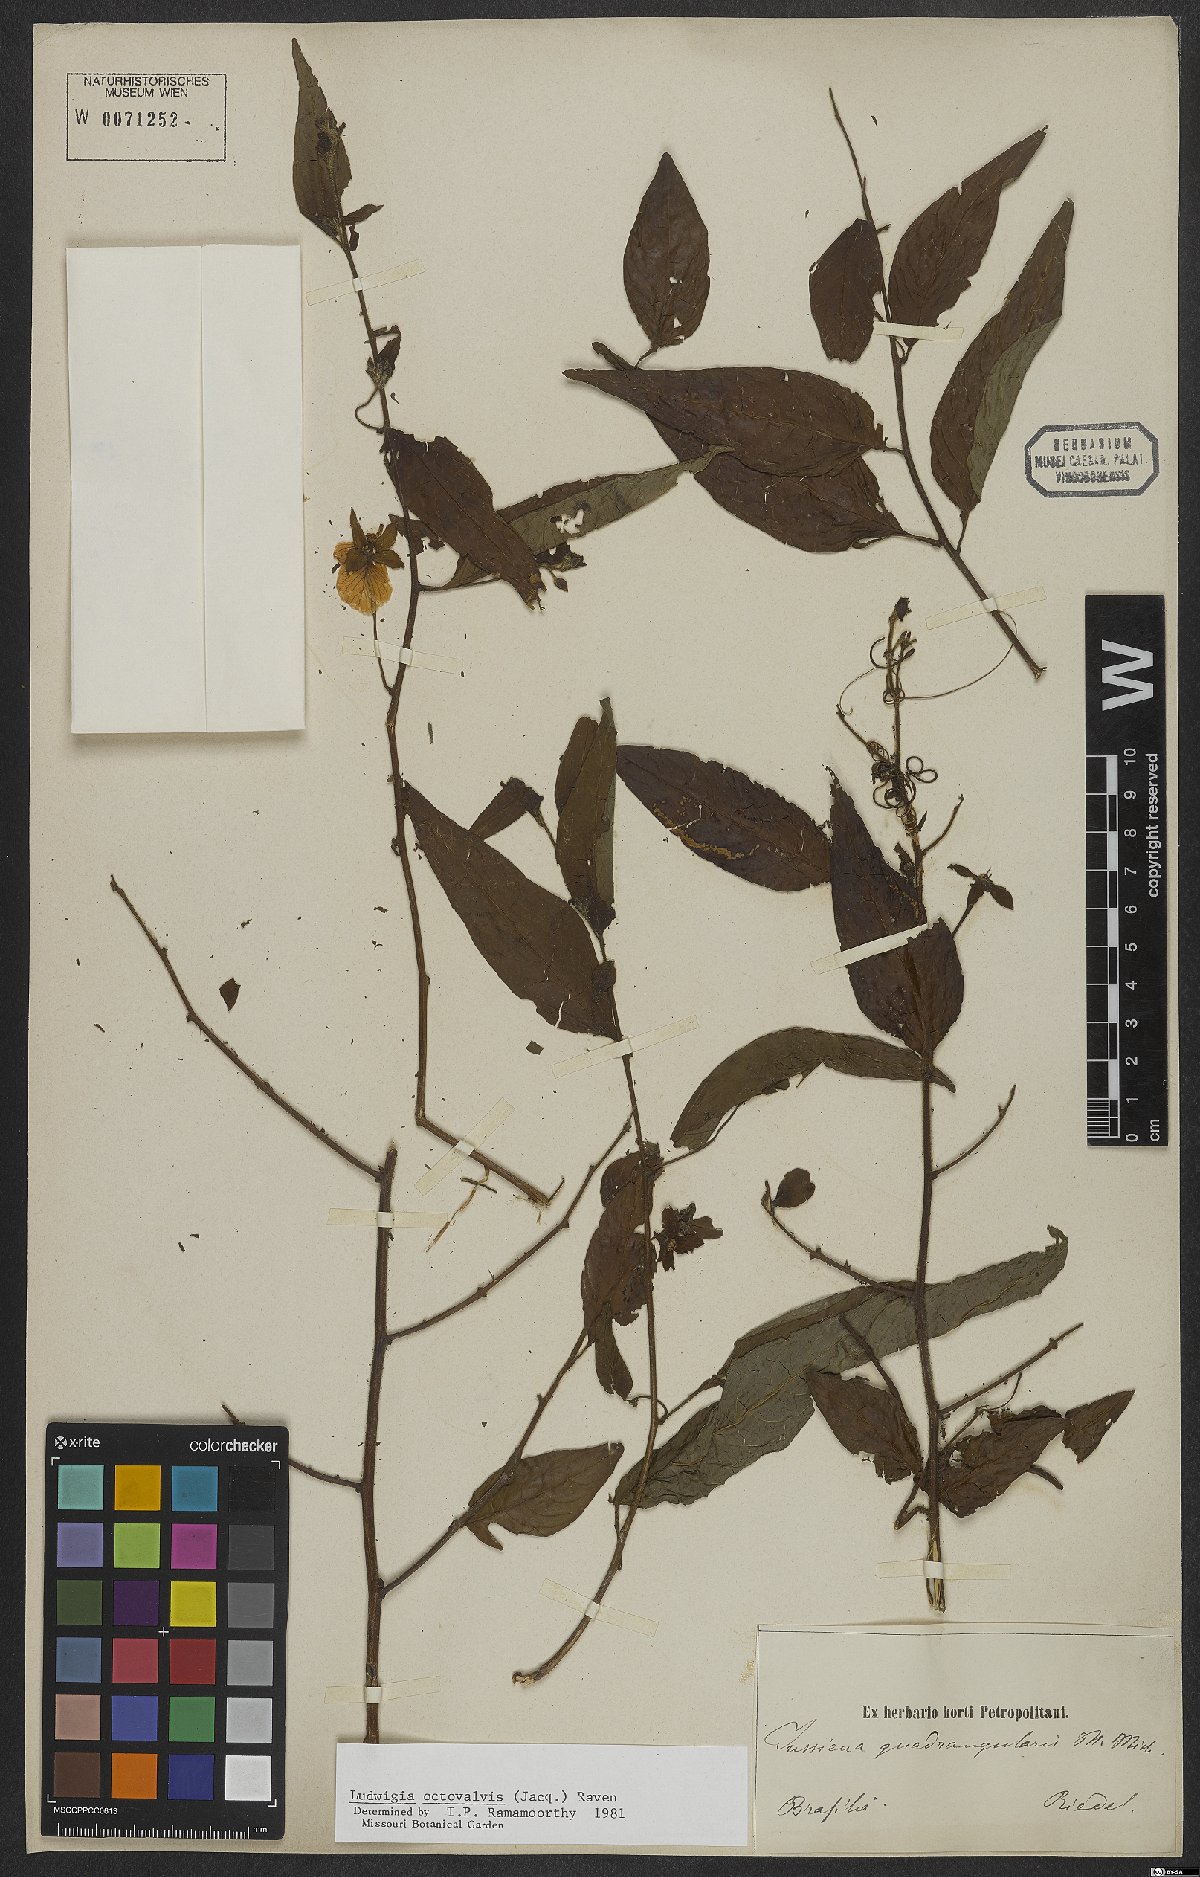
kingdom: Plantae
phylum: Tracheophyta
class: Magnoliopsida
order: Myrtales
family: Onagraceae
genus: Ludwigia
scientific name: Ludwigia octovalvis
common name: Water-primrose
